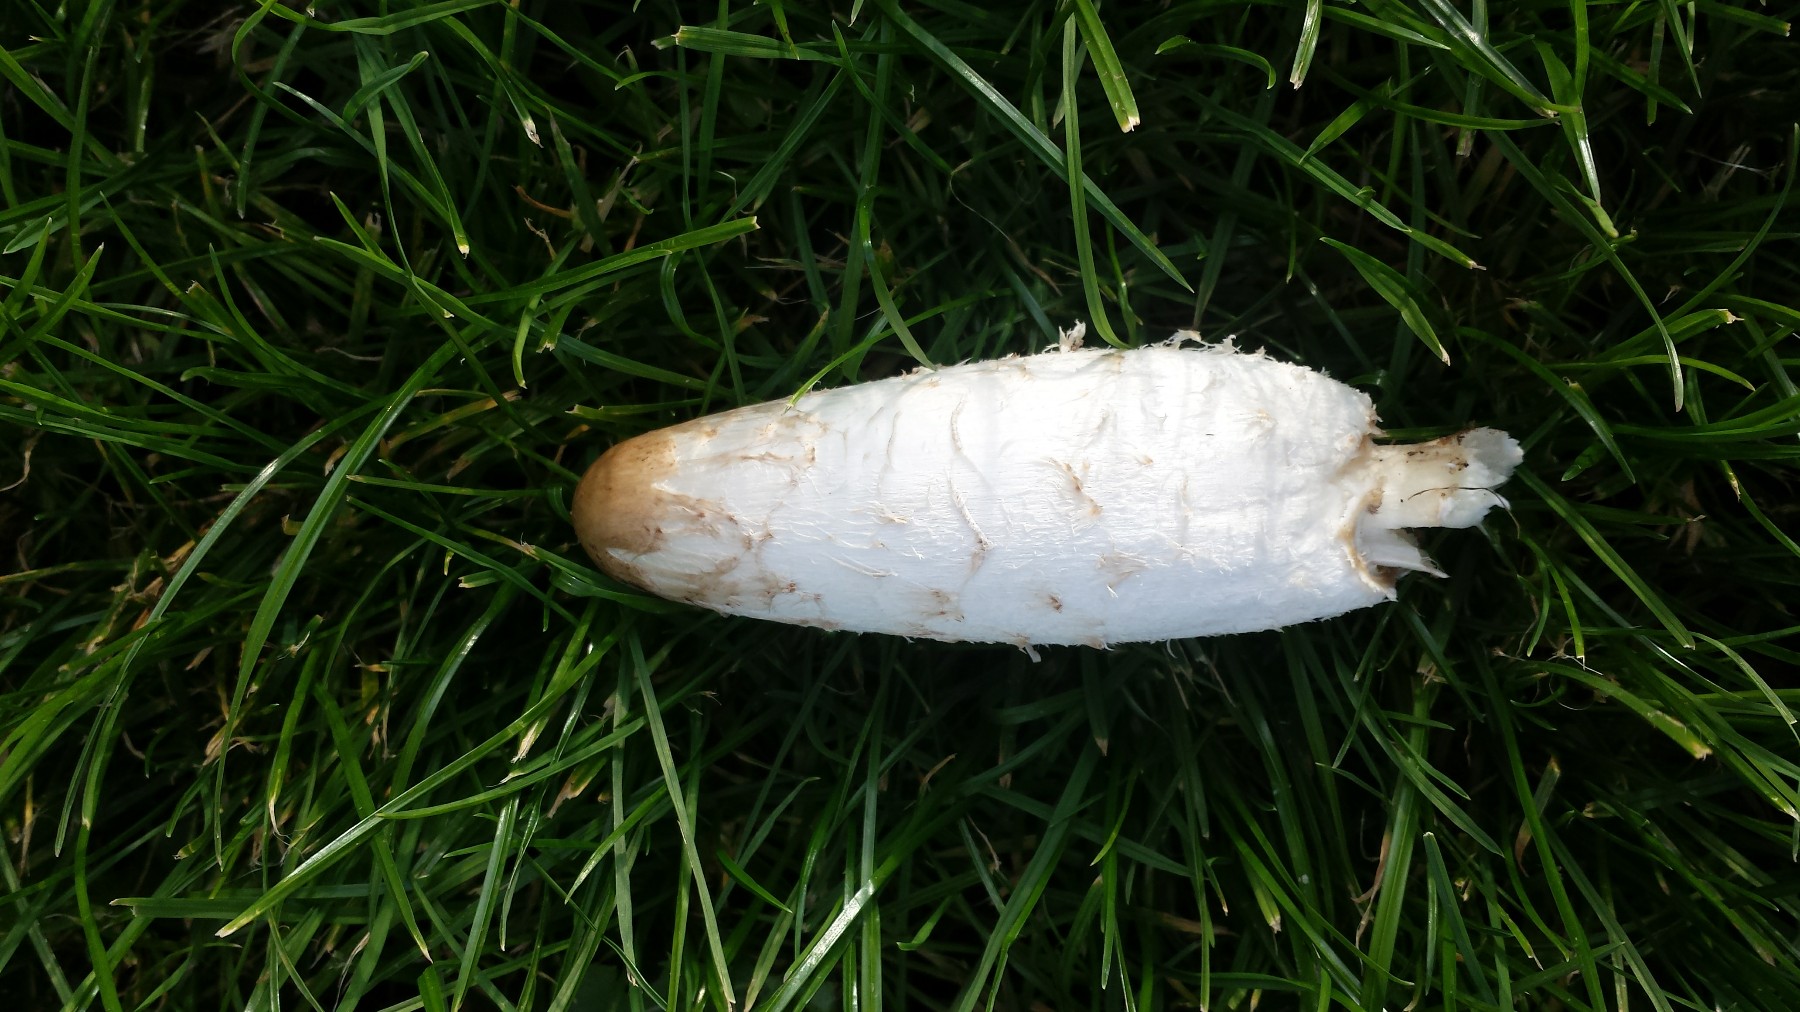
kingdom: Fungi
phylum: Basidiomycota
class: Agaricomycetes
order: Agaricales
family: Agaricaceae
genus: Coprinus
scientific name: Coprinus comatus
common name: stor parykhat
